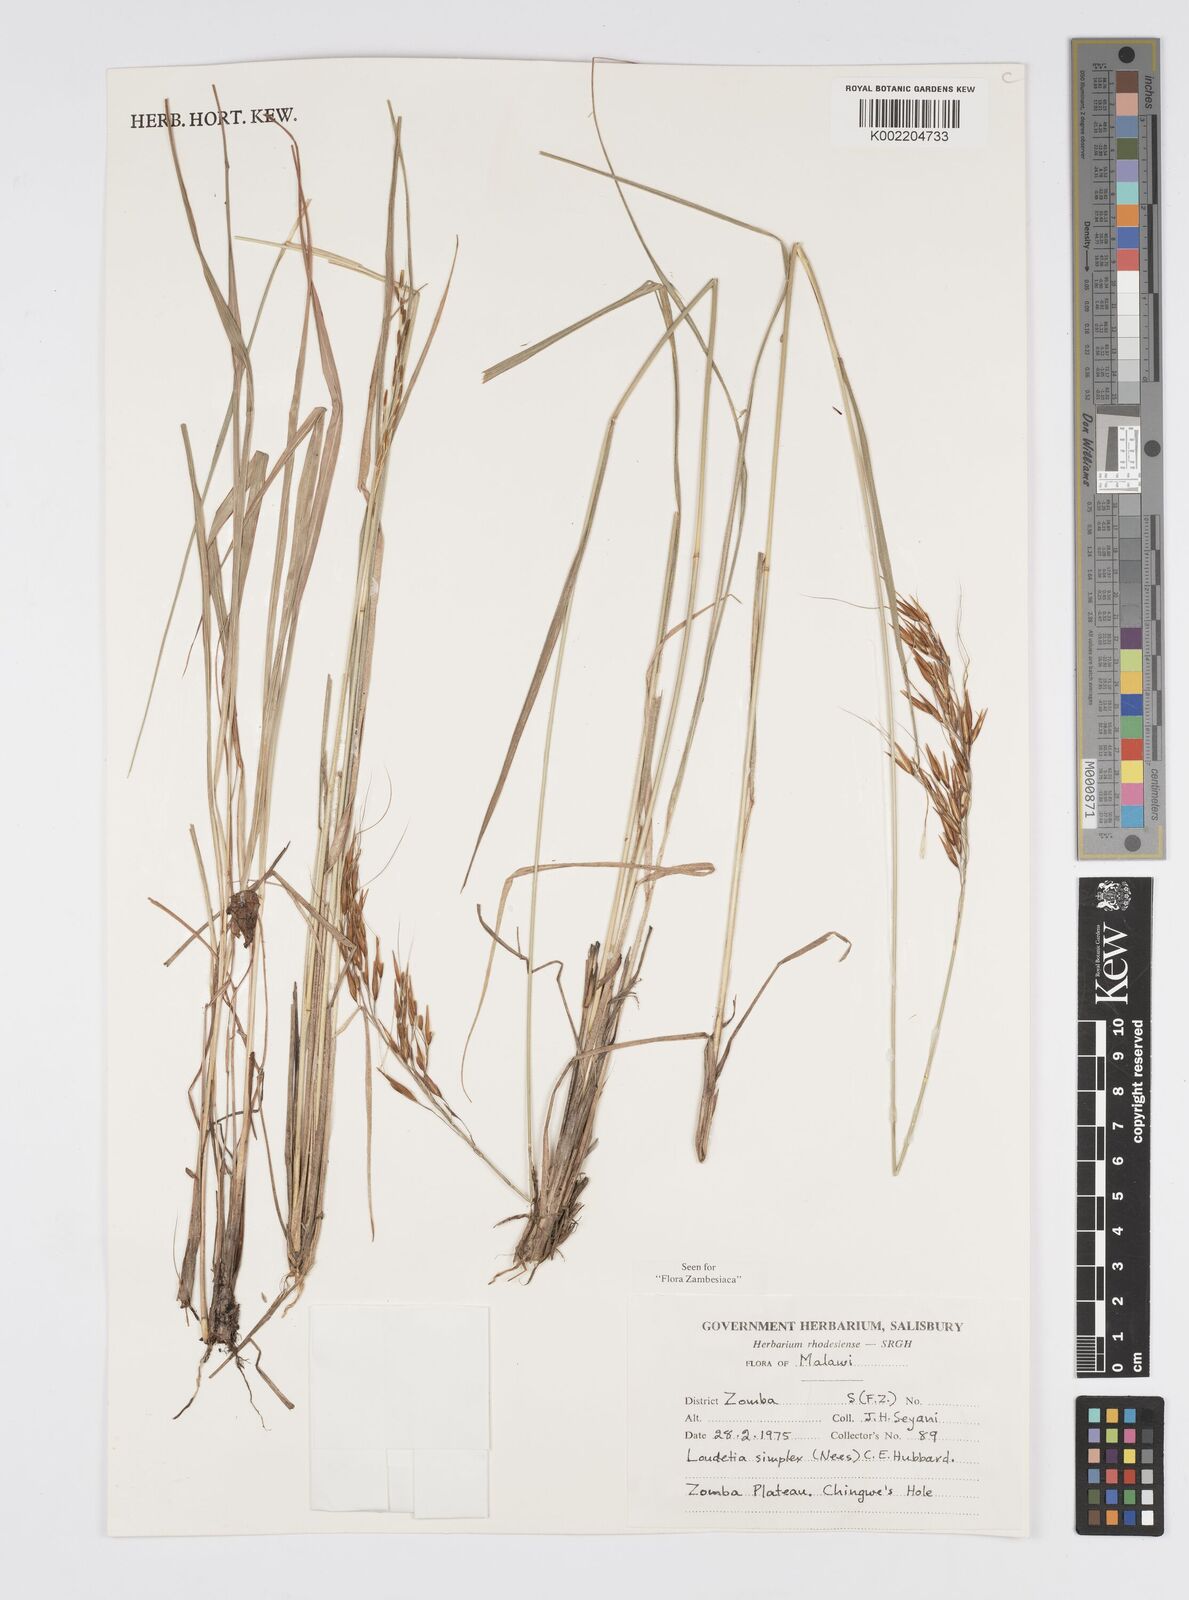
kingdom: Plantae
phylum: Tracheophyta
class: Liliopsida
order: Poales
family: Poaceae
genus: Loudetia
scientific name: Loudetia simplex
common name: Common russet grass
